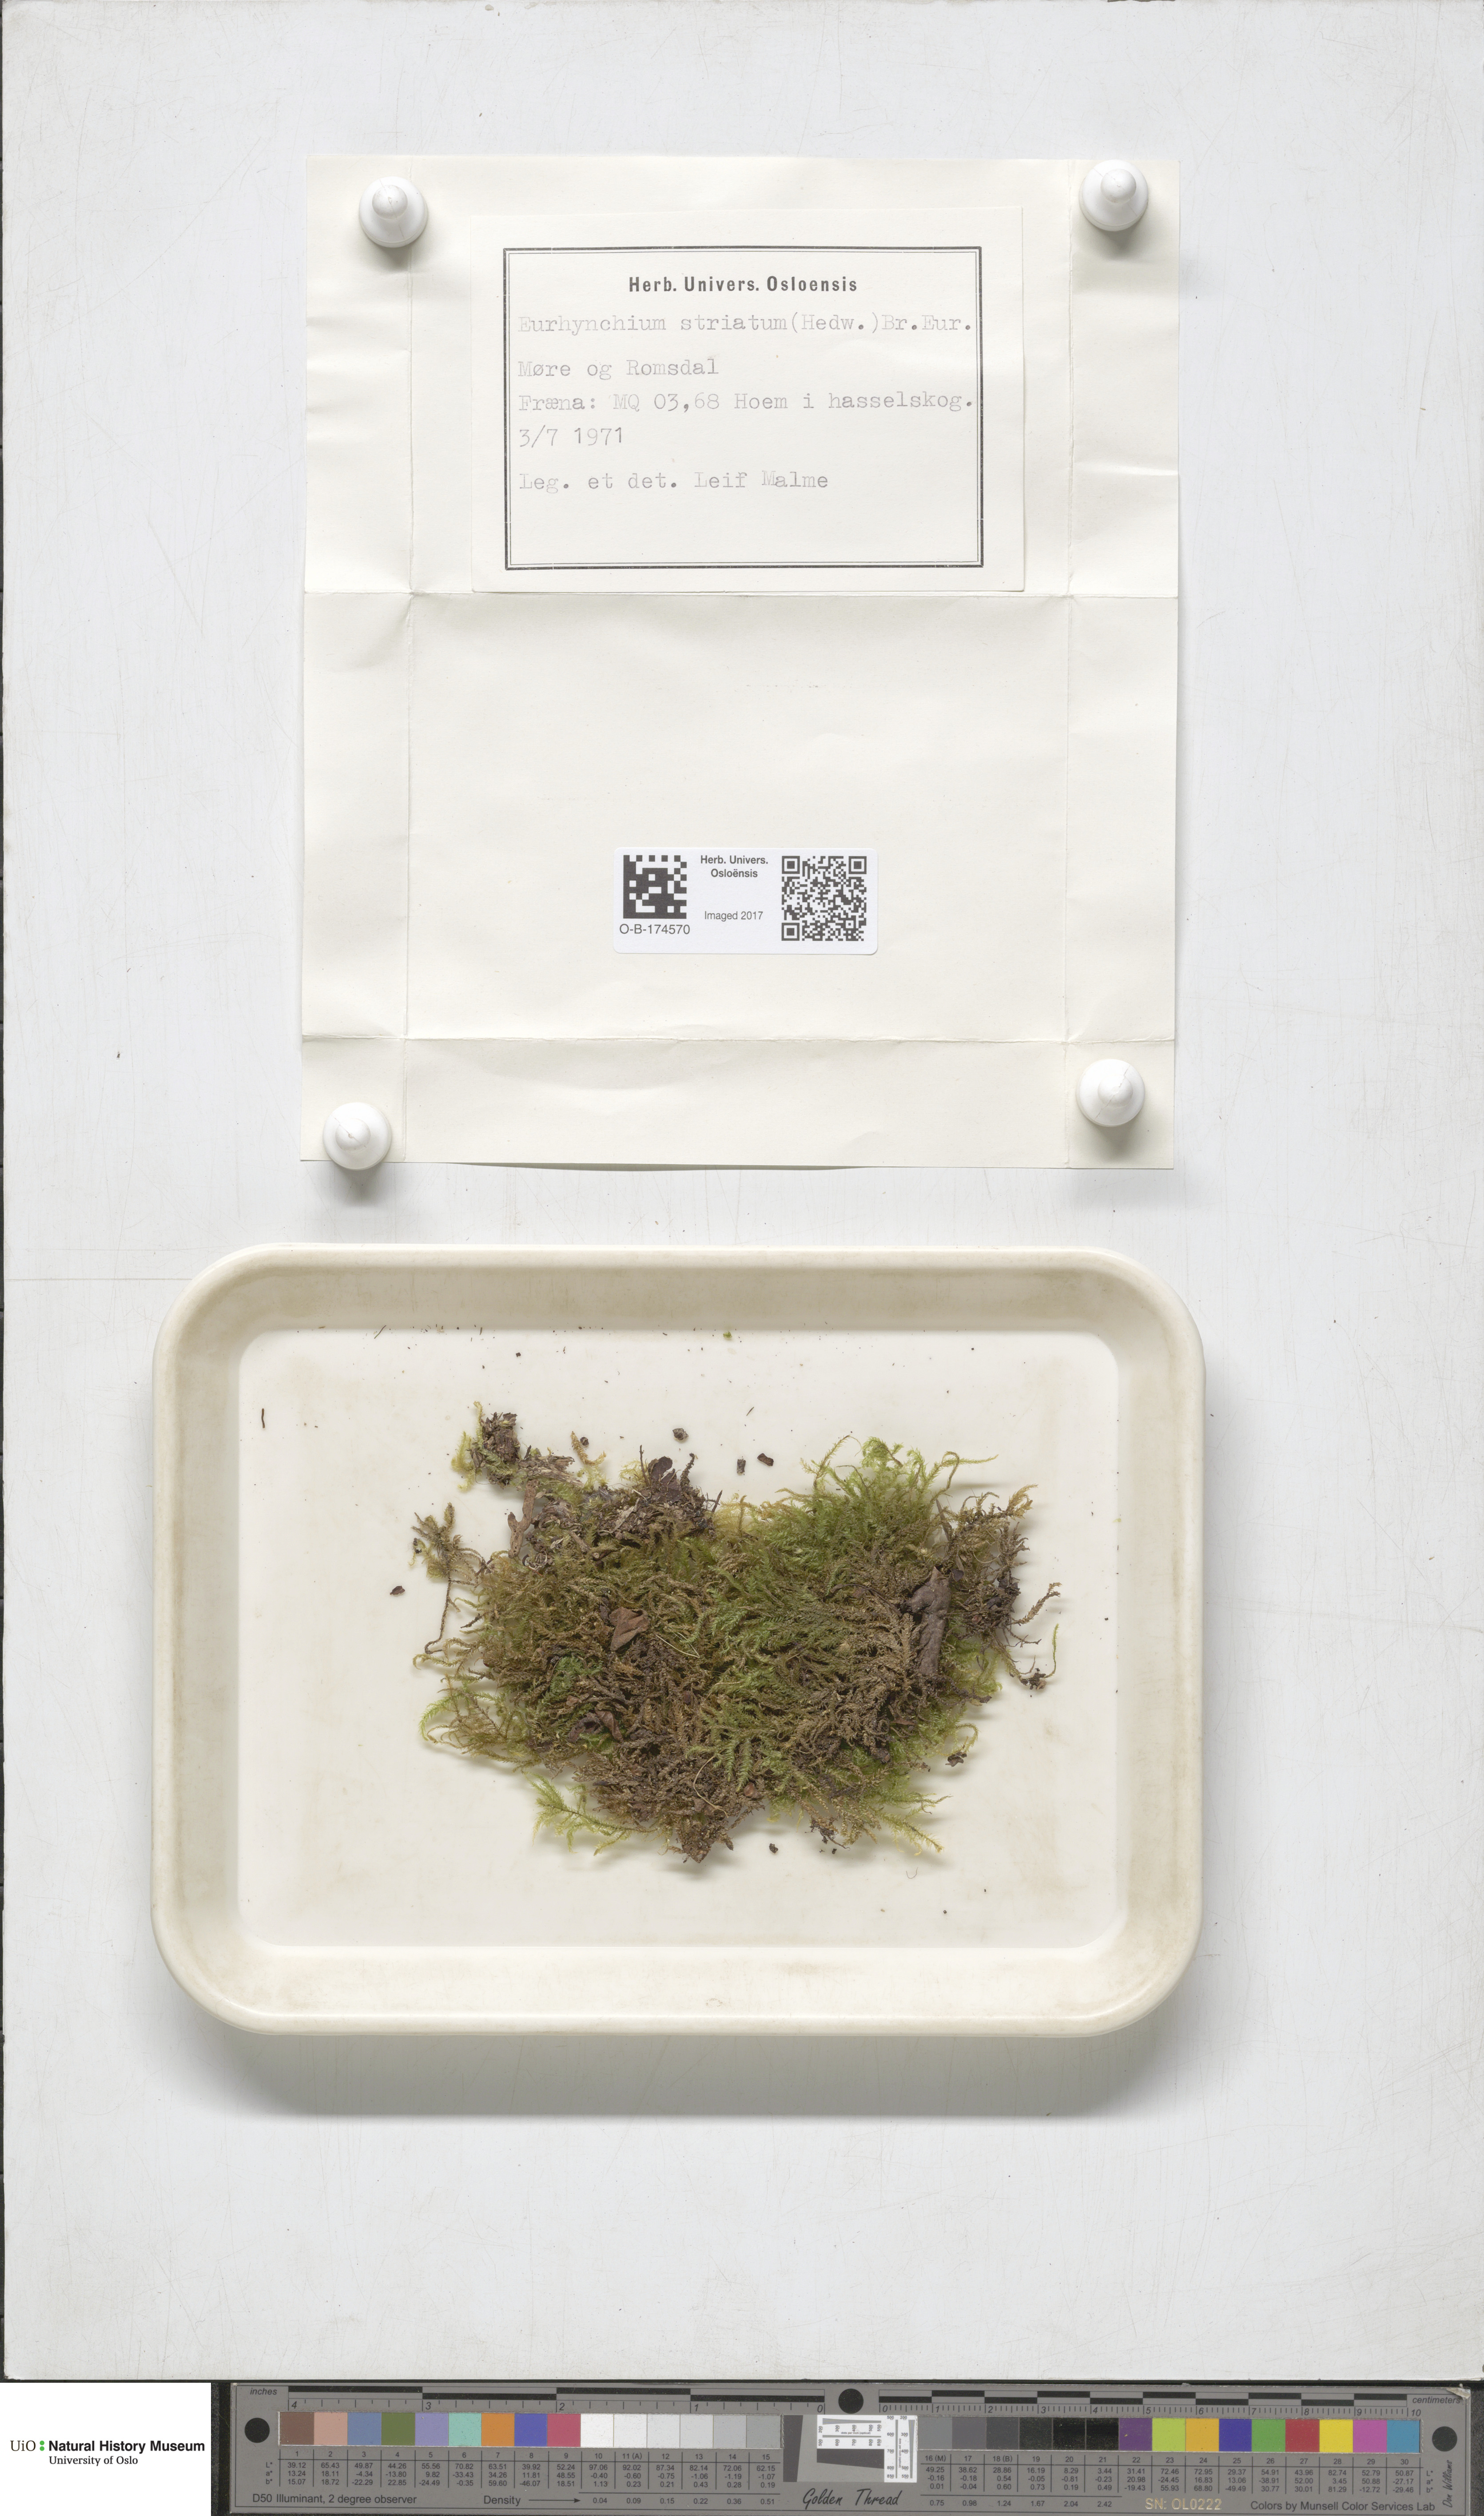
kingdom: Plantae
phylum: Bryophyta
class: Bryopsida
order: Hypnales
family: Brachytheciaceae
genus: Eurhynchium
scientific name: Eurhynchium striatum
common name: Common striated feather-moss
